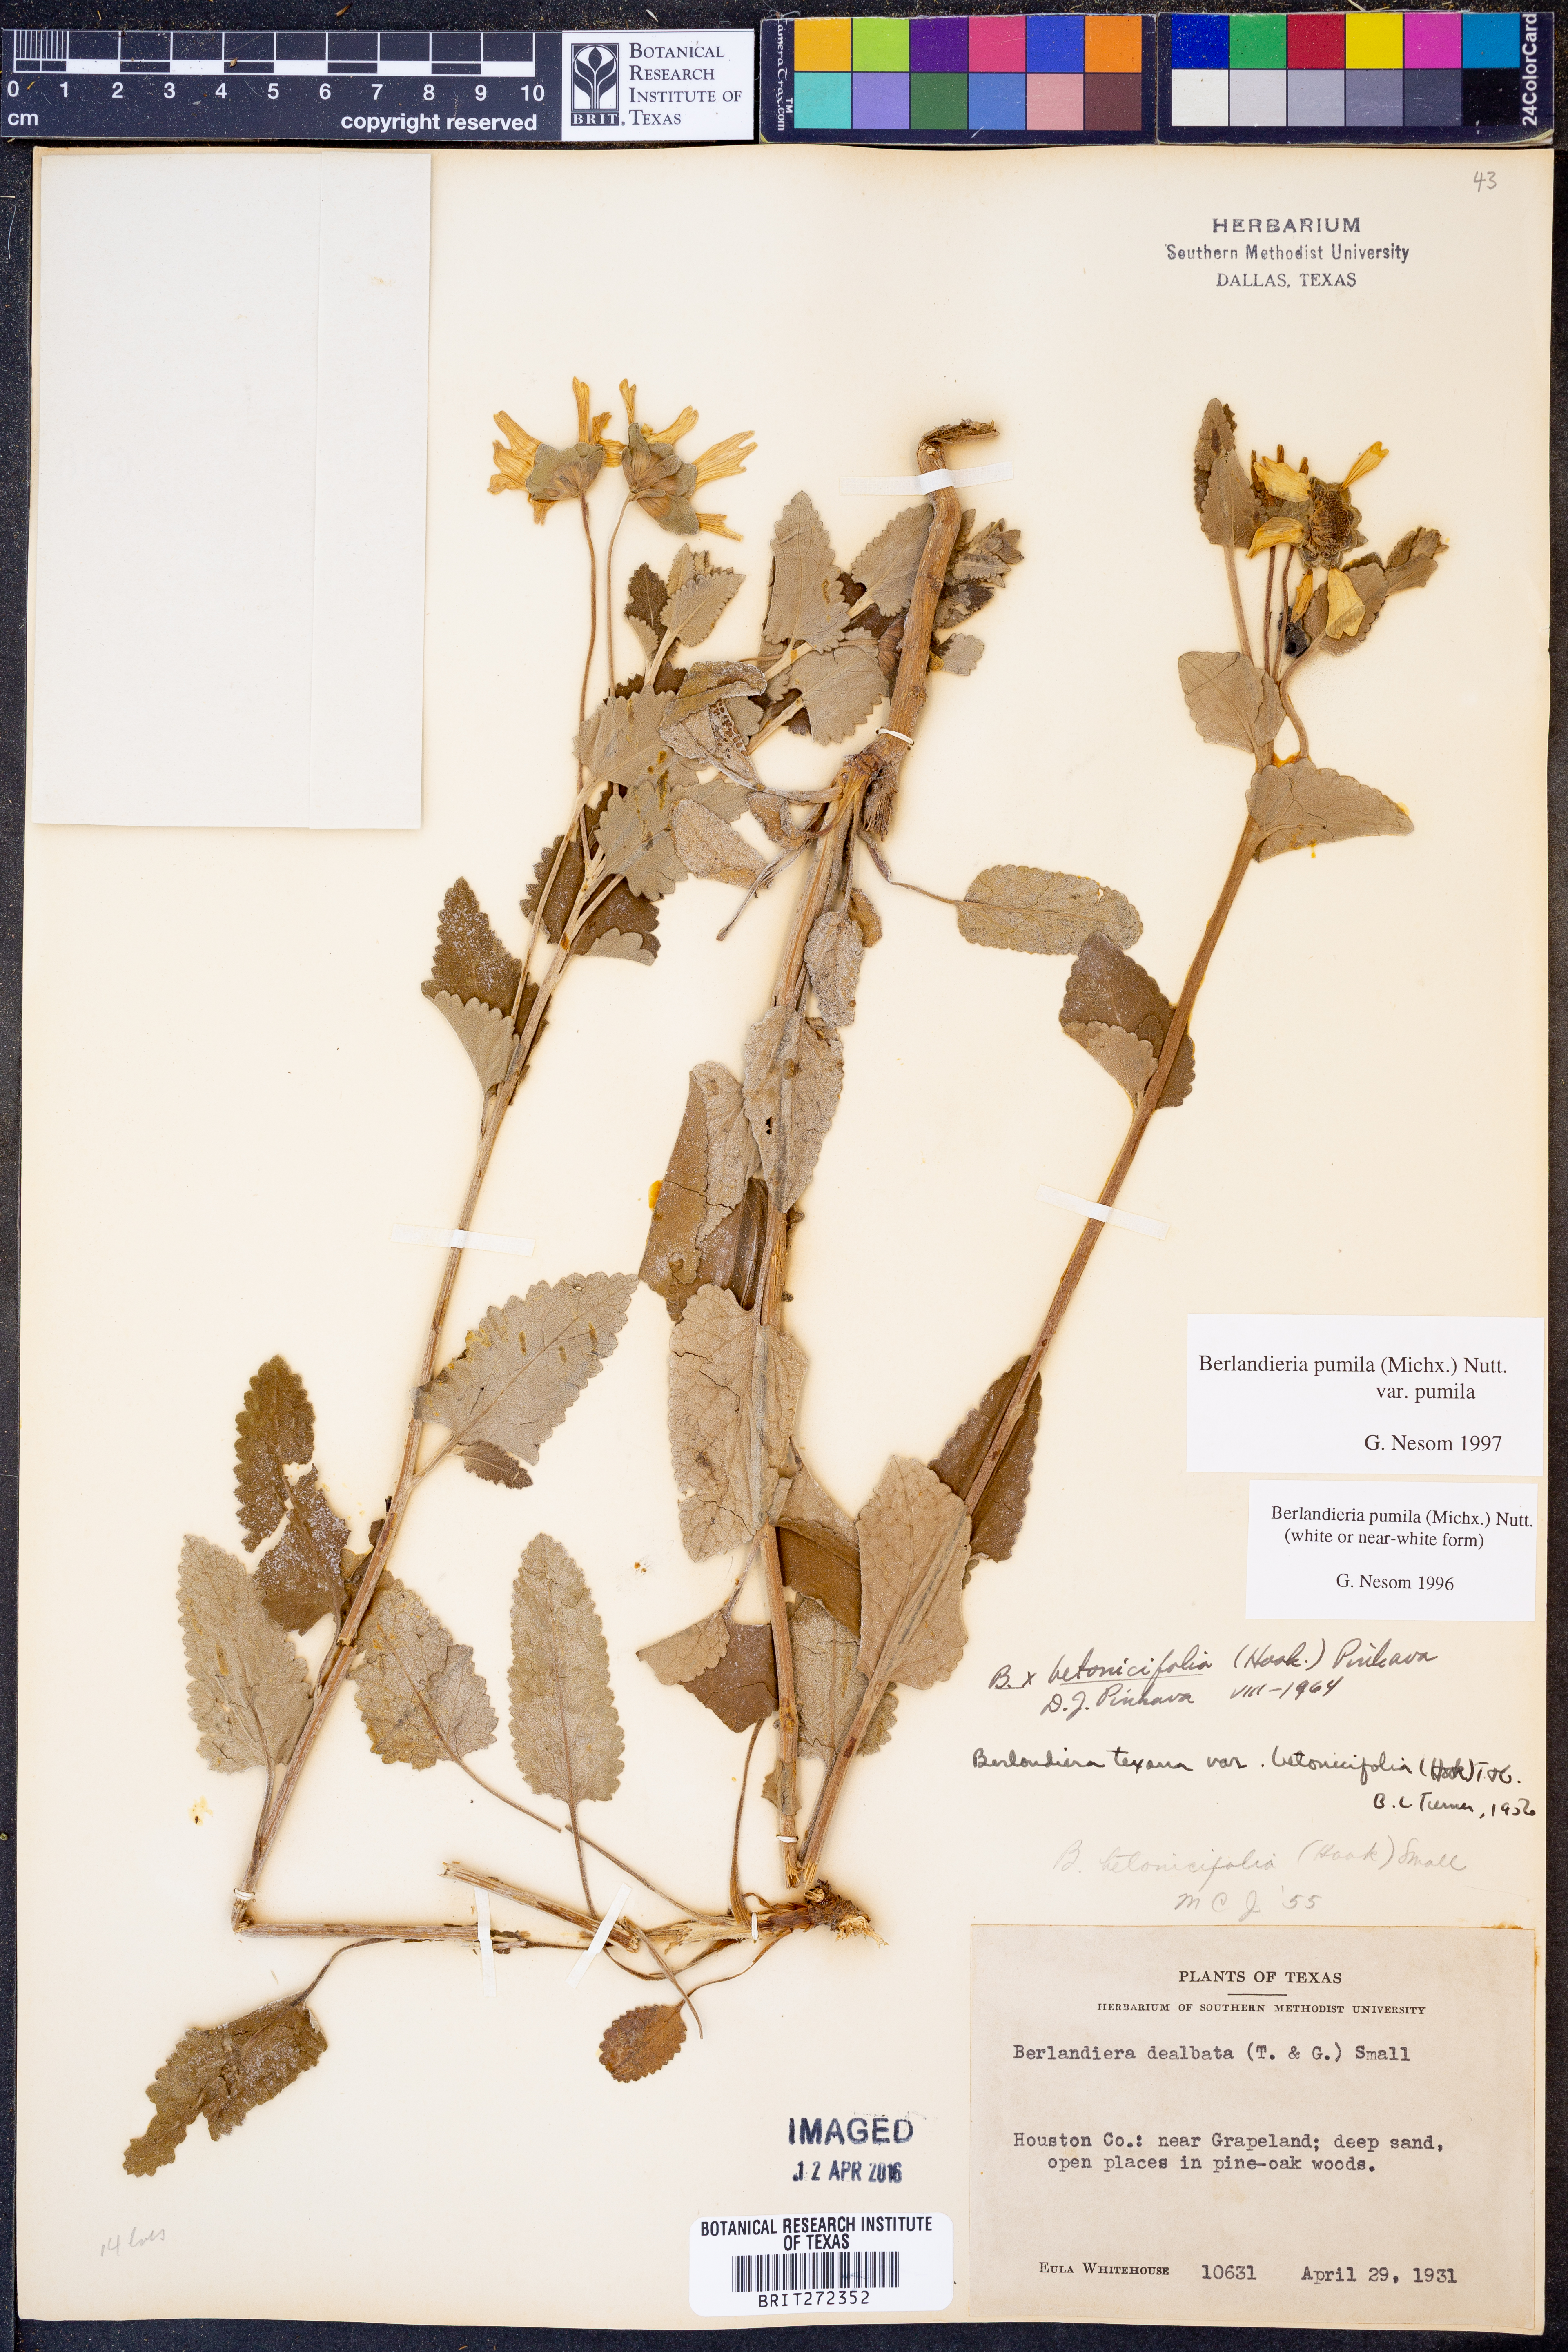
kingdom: Plantae
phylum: Tracheophyta
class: Magnoliopsida
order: Asterales
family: Asteraceae
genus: Berlandiera
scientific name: Berlandiera pumila
